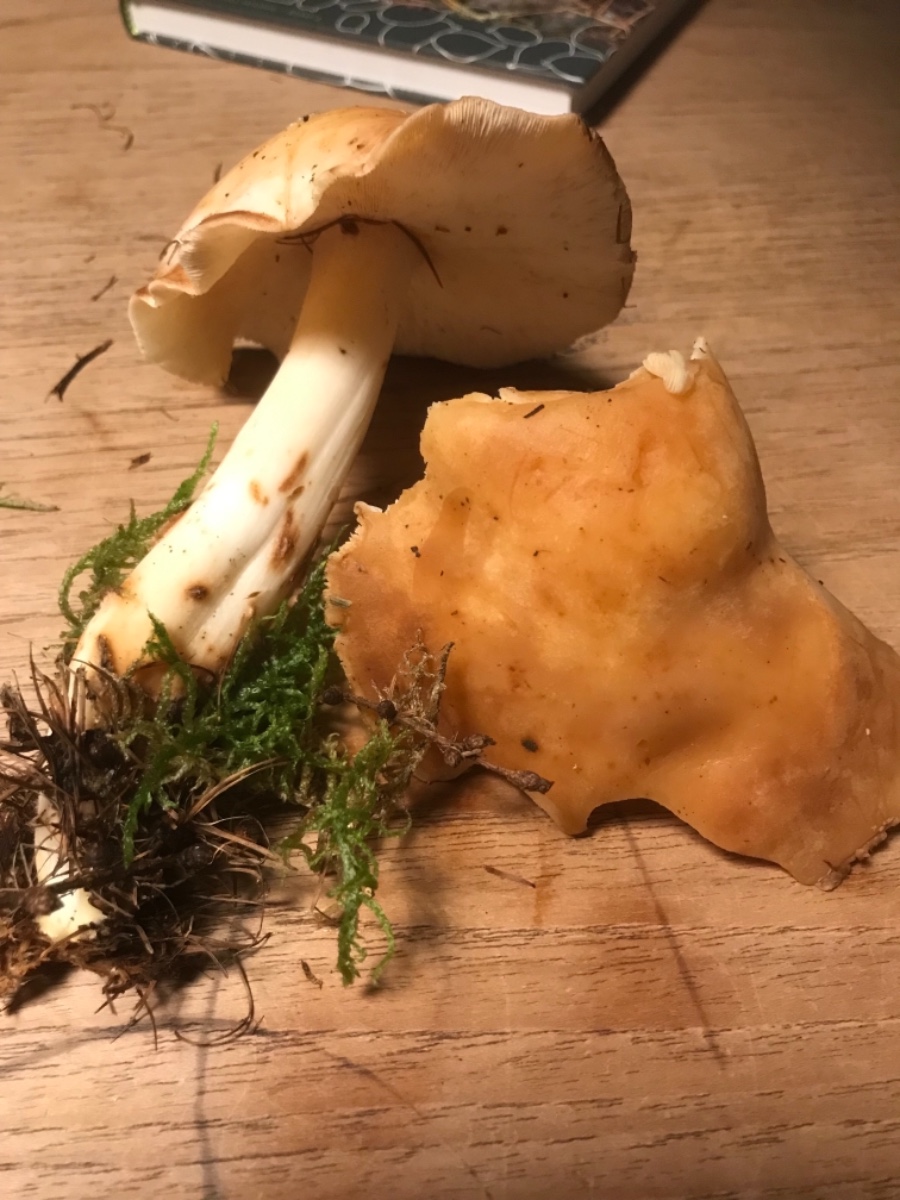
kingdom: Fungi
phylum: Basidiomycota
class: Agaricomycetes
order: Agaricales
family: Omphalotaceae
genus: Rhodocollybia
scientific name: Rhodocollybia maculata
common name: plettet fladhat
